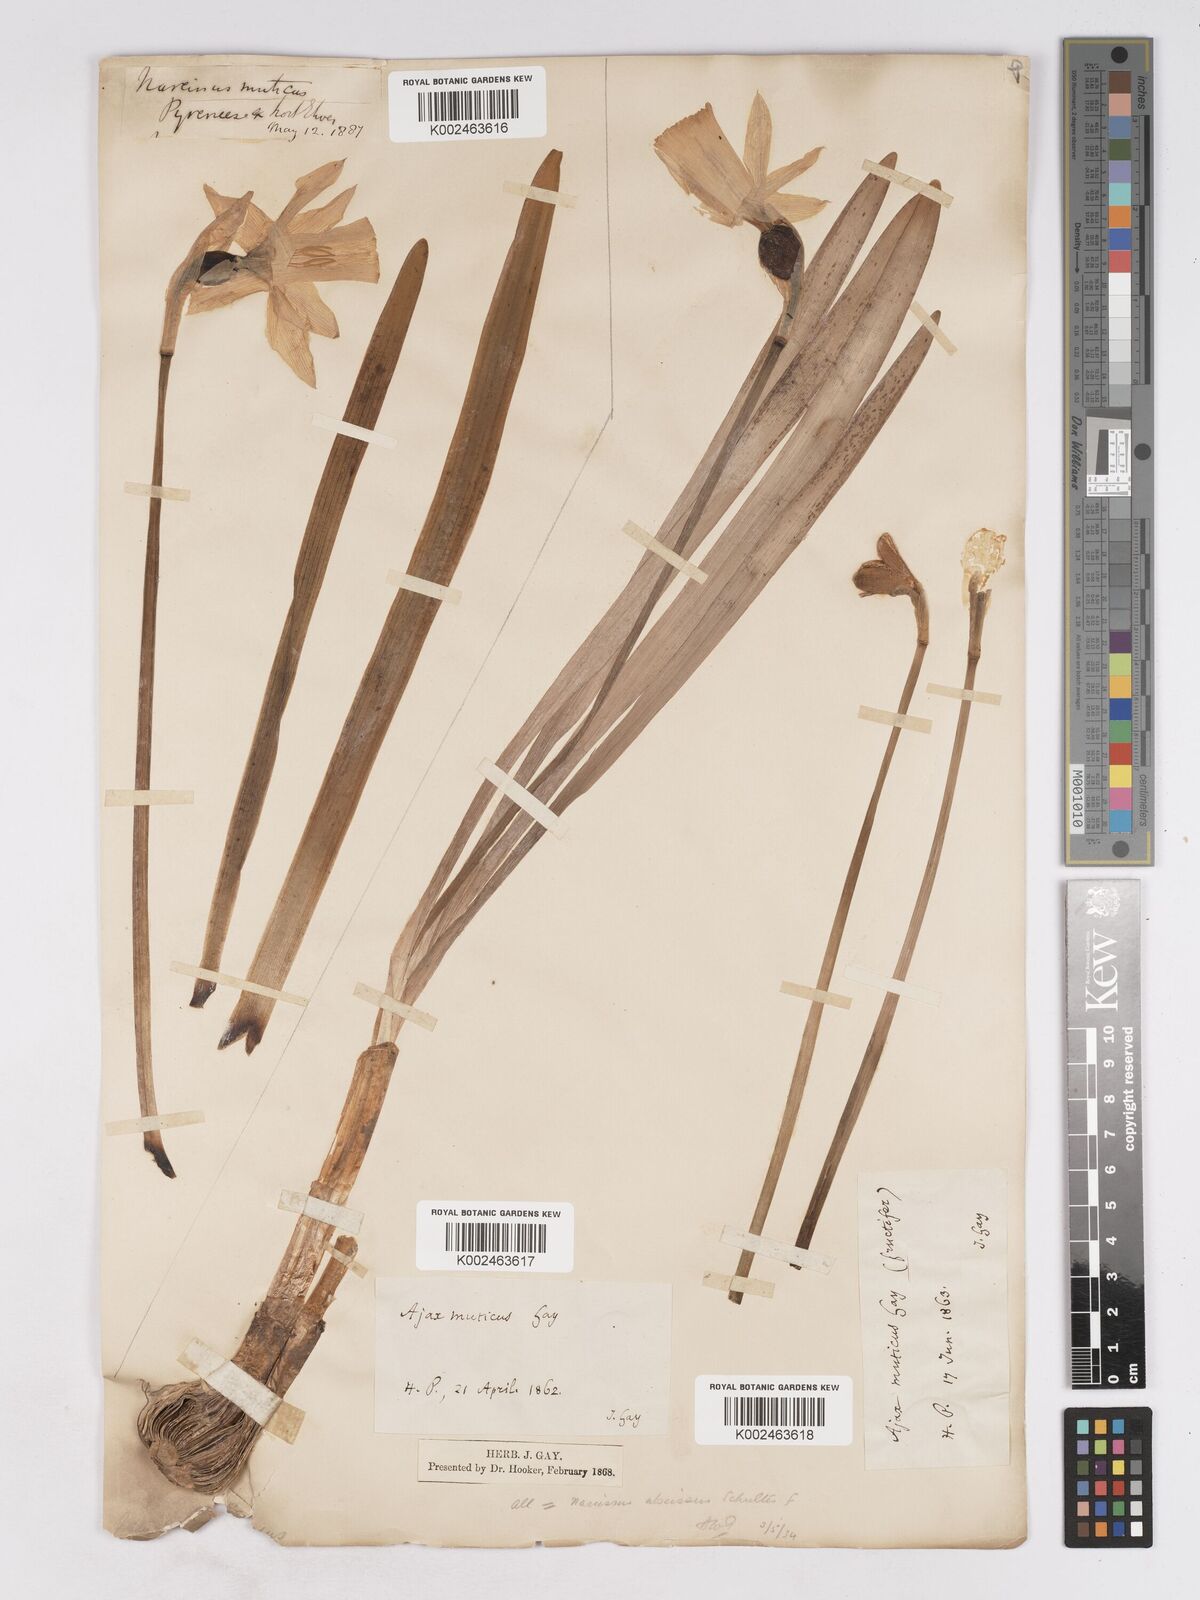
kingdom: Plantae
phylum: Tracheophyta
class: Liliopsida
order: Asparagales
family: Amaryllidaceae
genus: Narcissus
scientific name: Narcissus abscissus
